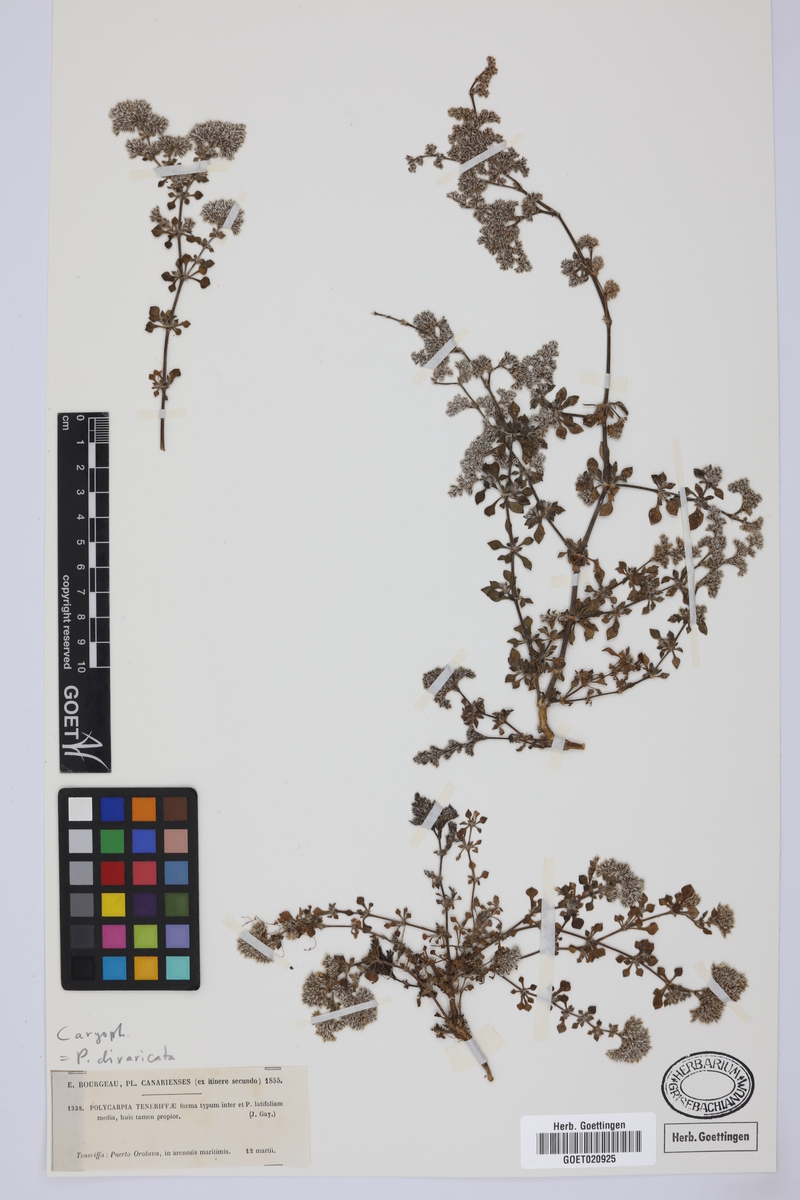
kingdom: Plantae
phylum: Tracheophyta
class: Magnoliopsida
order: Caryophyllales
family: Caryophyllaceae
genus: Polycarpaea
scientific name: Polycarpaea divaricata
